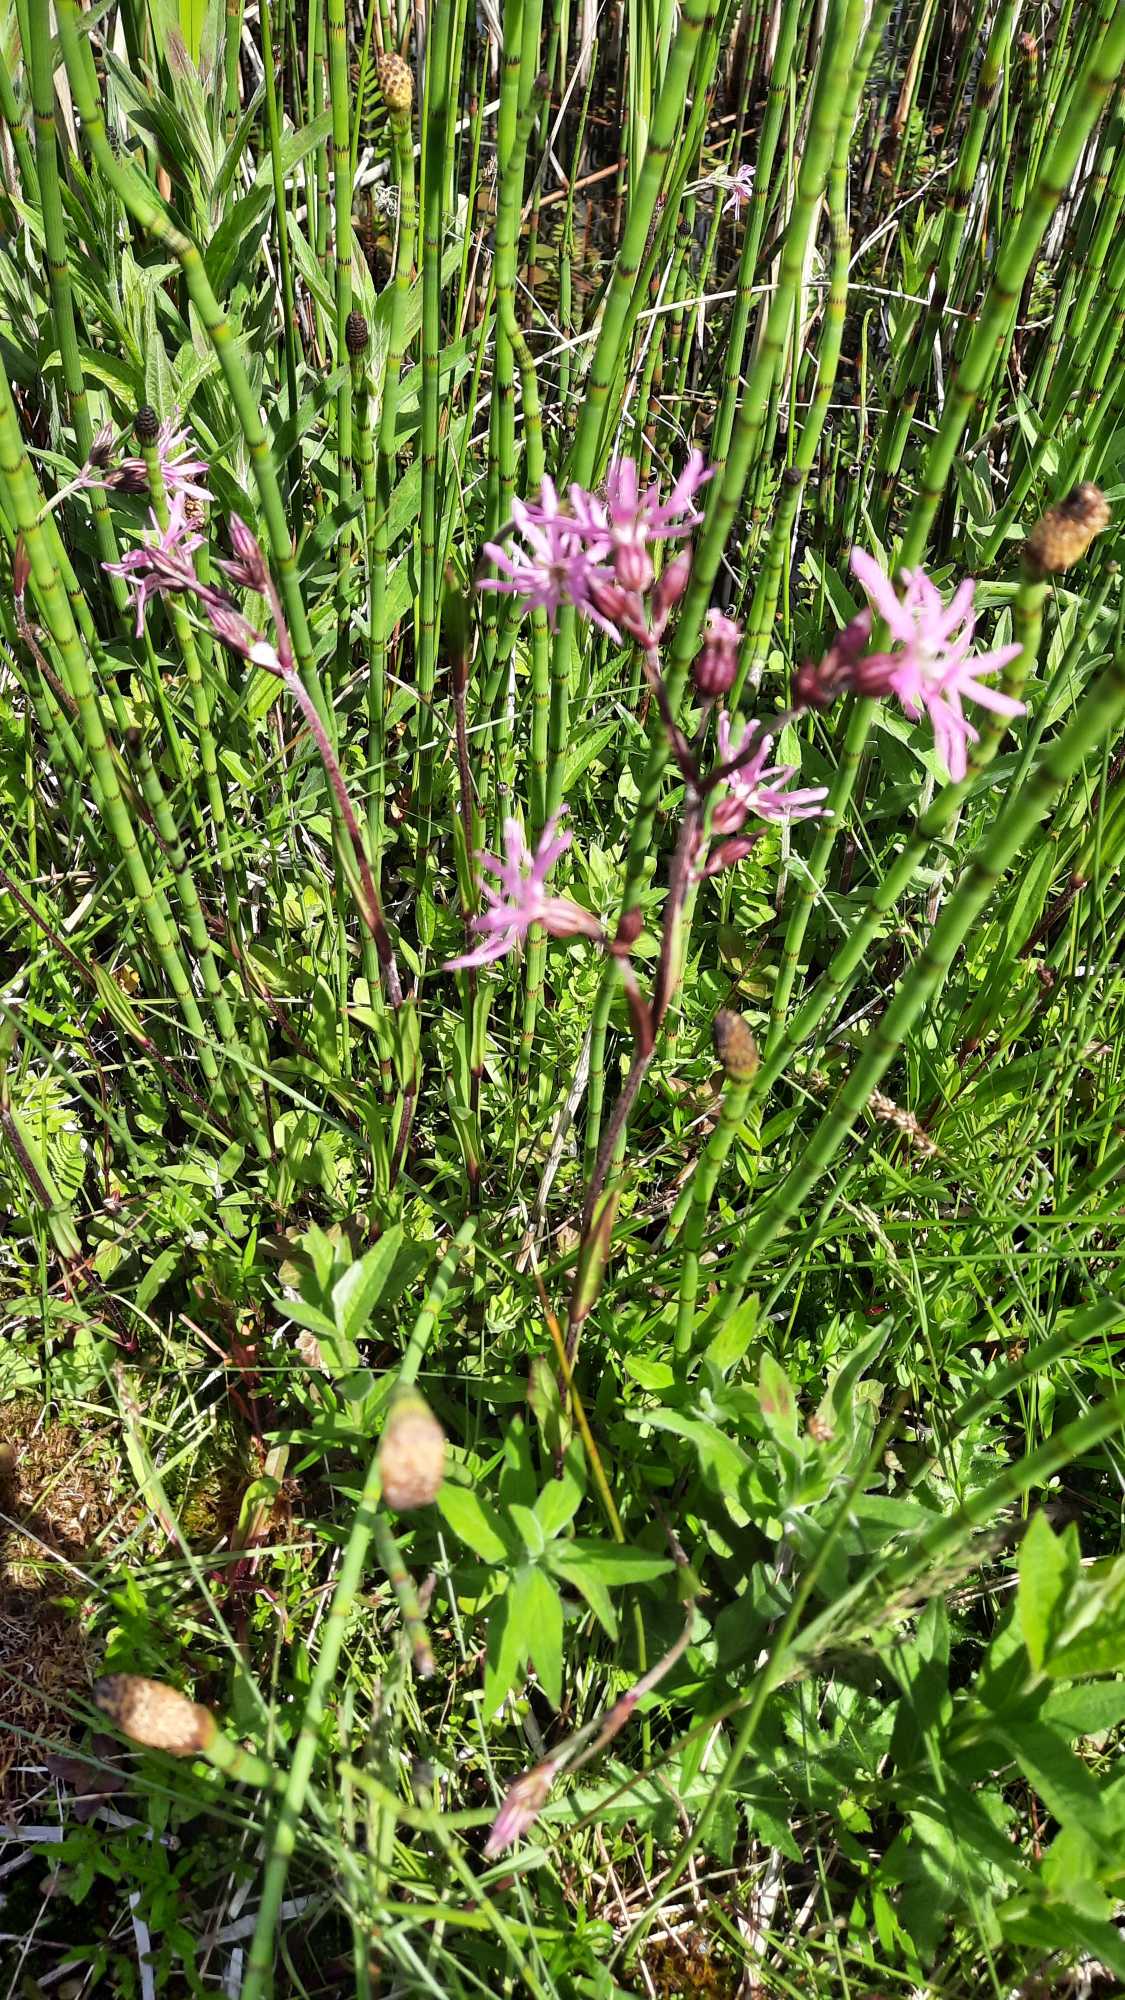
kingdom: Plantae
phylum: Tracheophyta
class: Magnoliopsida
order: Caryophyllales
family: Caryophyllaceae
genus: Silene
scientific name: Silene flos-cuculi
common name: Trævlekrone
